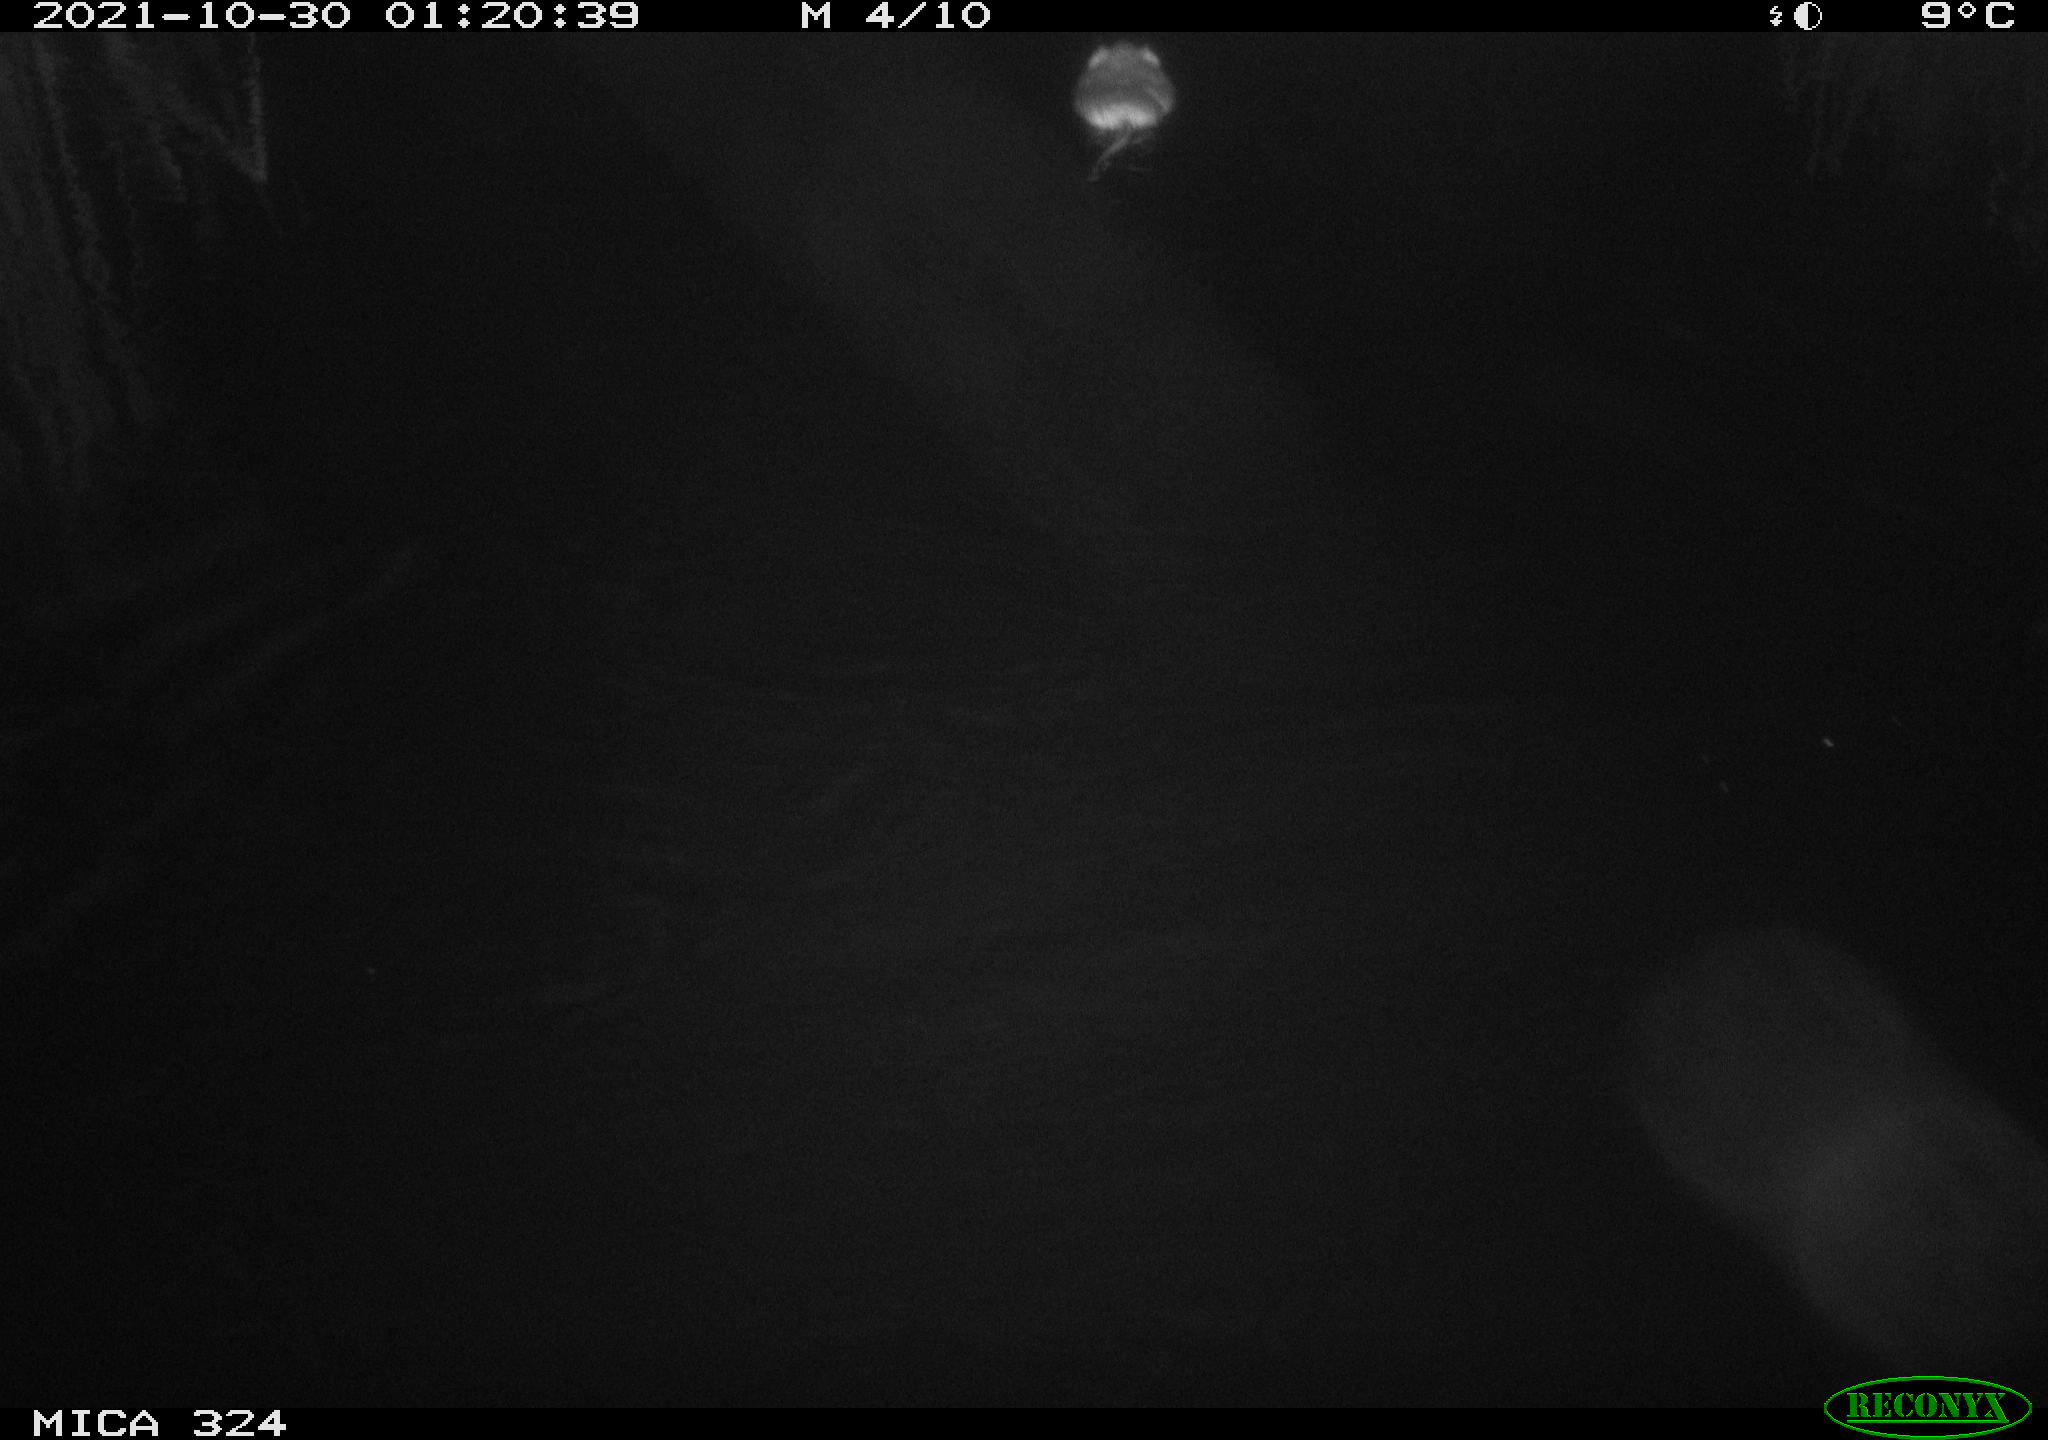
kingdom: Animalia
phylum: Chordata
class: Mammalia
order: Rodentia
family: Cricetidae
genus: Ondatra
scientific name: Ondatra zibethicus
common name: Muskrat
